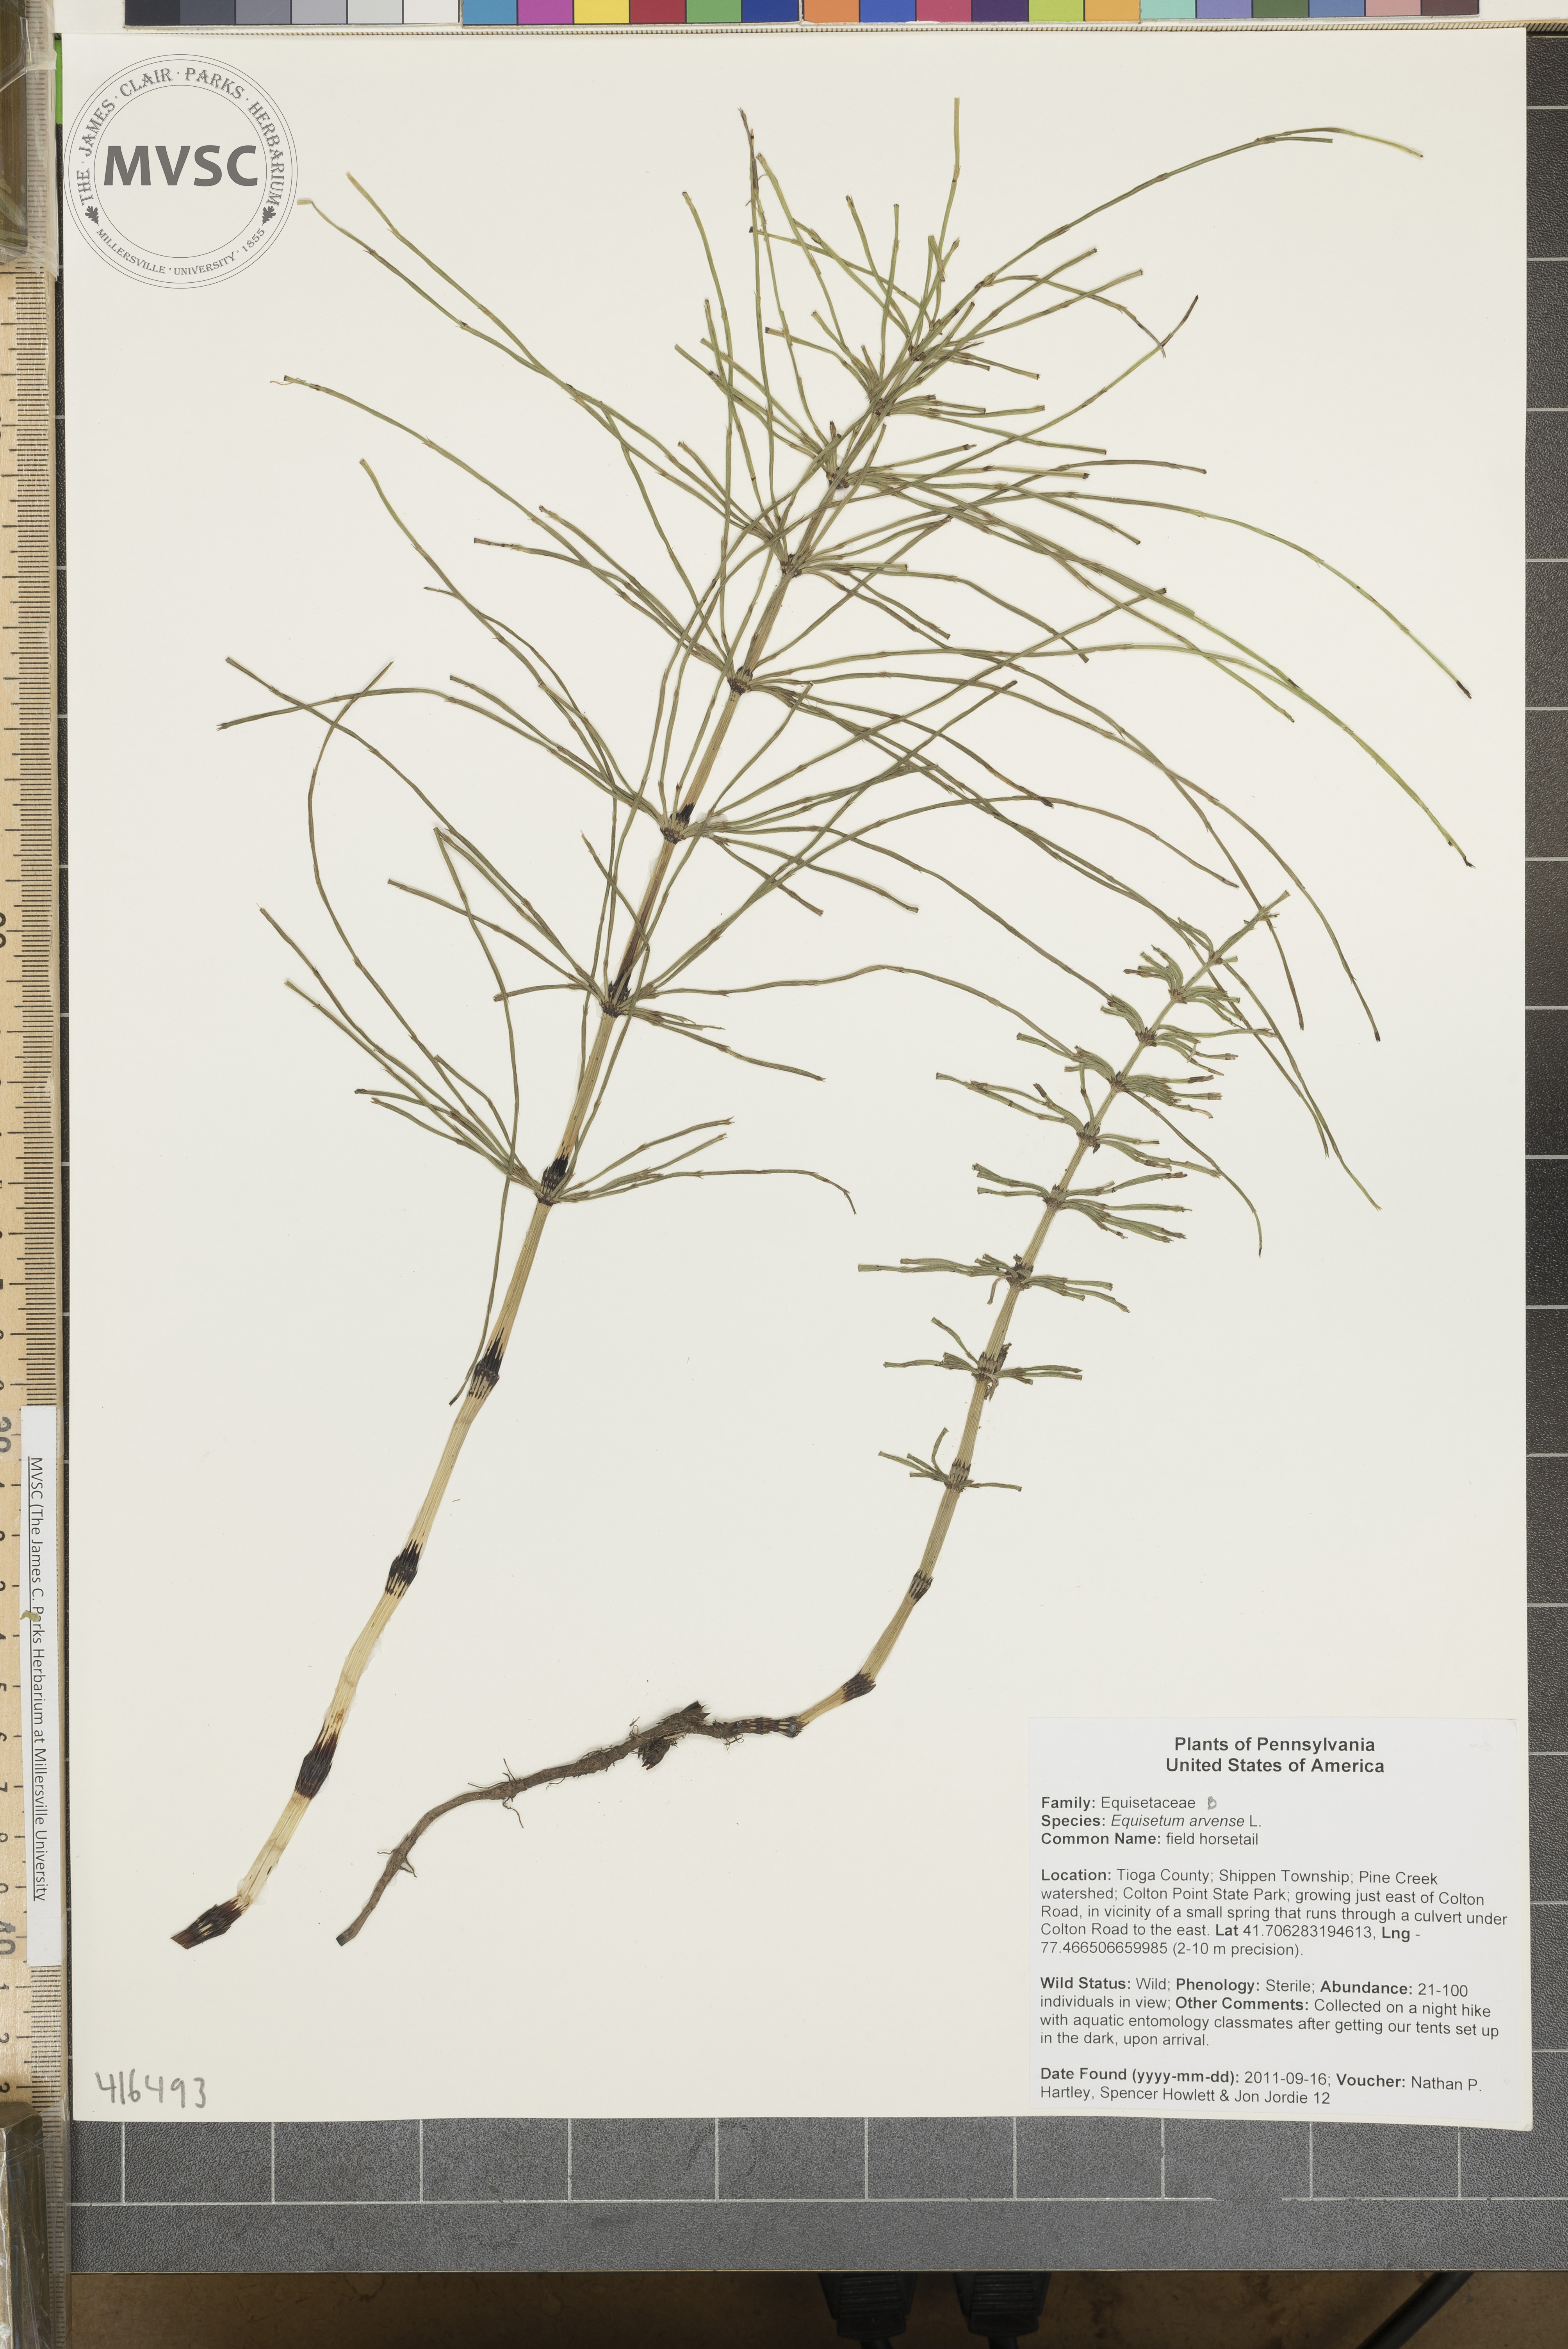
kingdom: Plantae
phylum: Tracheophyta
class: Polypodiopsida
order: Equisetales
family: Equisetaceae
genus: Equisetum
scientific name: Equisetum arvense
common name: field horsetail
